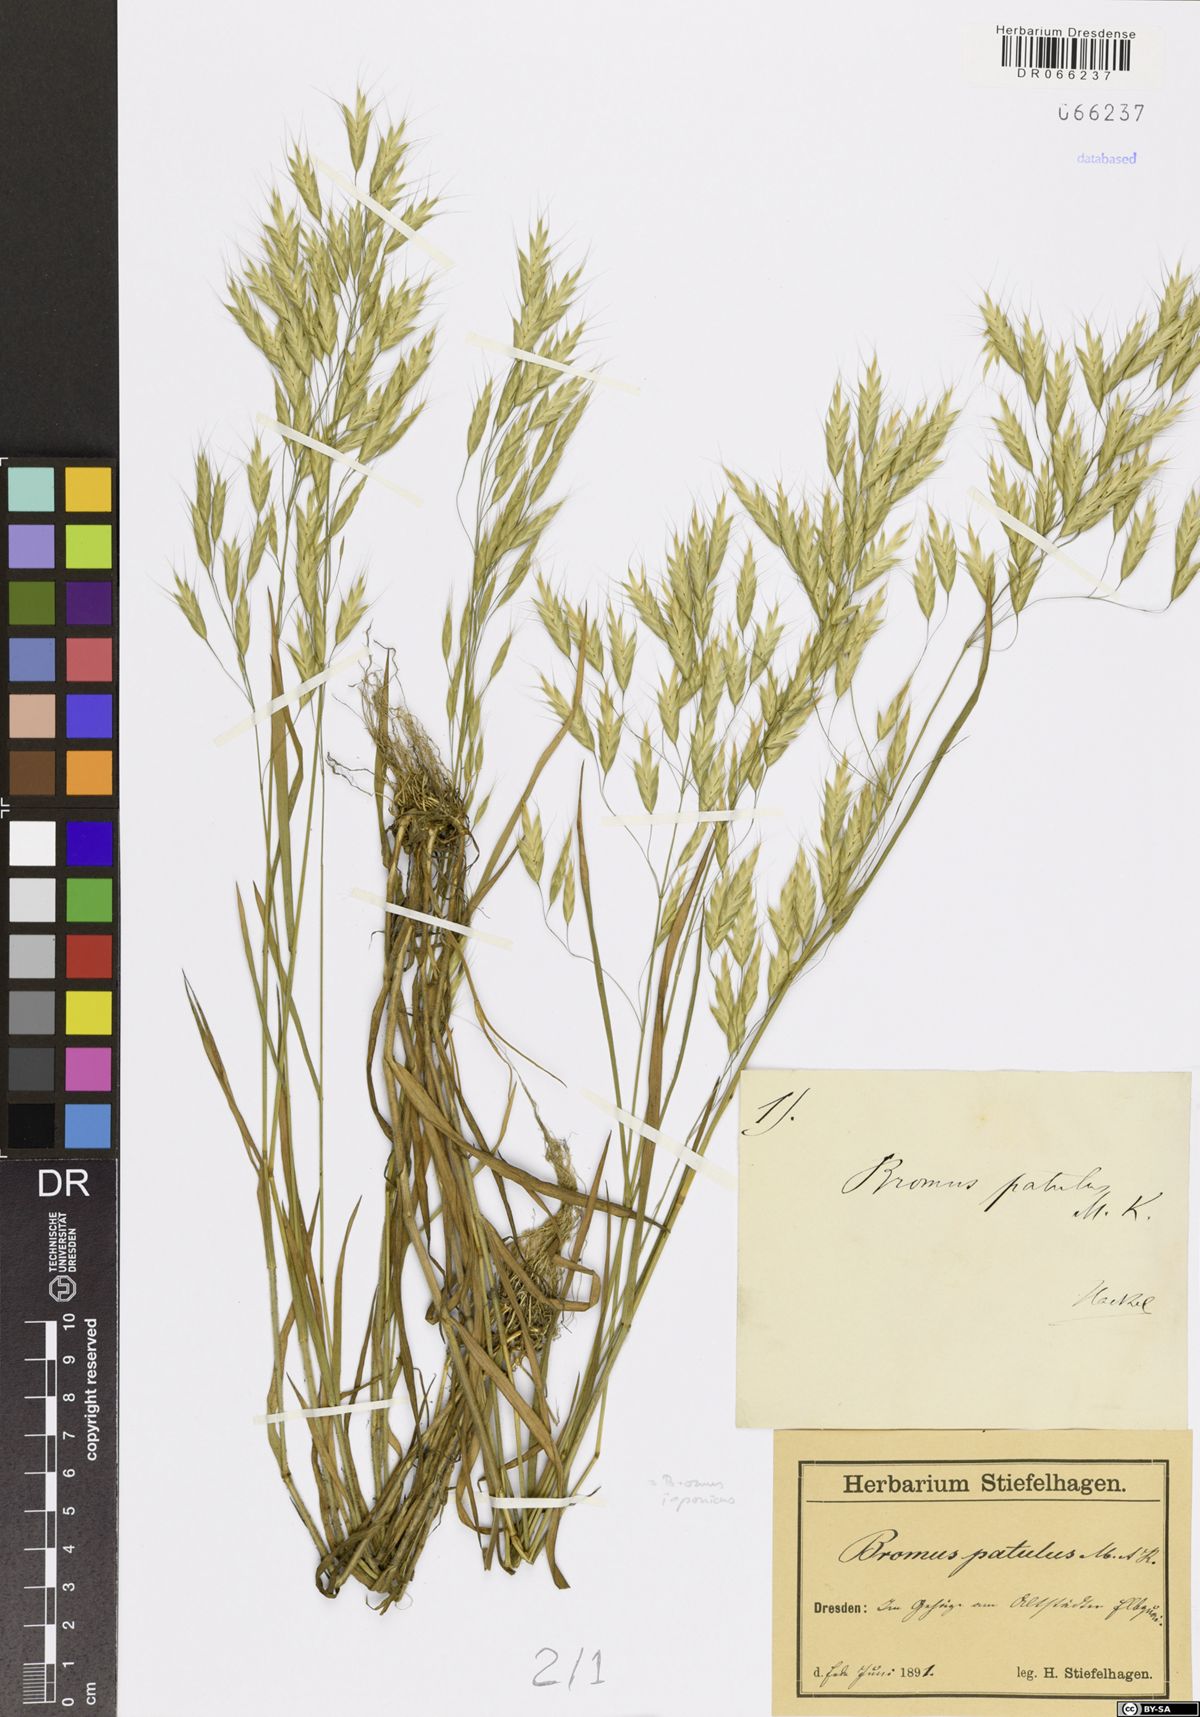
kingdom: Plantae
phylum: Tracheophyta
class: Liliopsida
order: Poales
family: Poaceae
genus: Bromus
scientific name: Bromus japonicus
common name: Japanese brome
